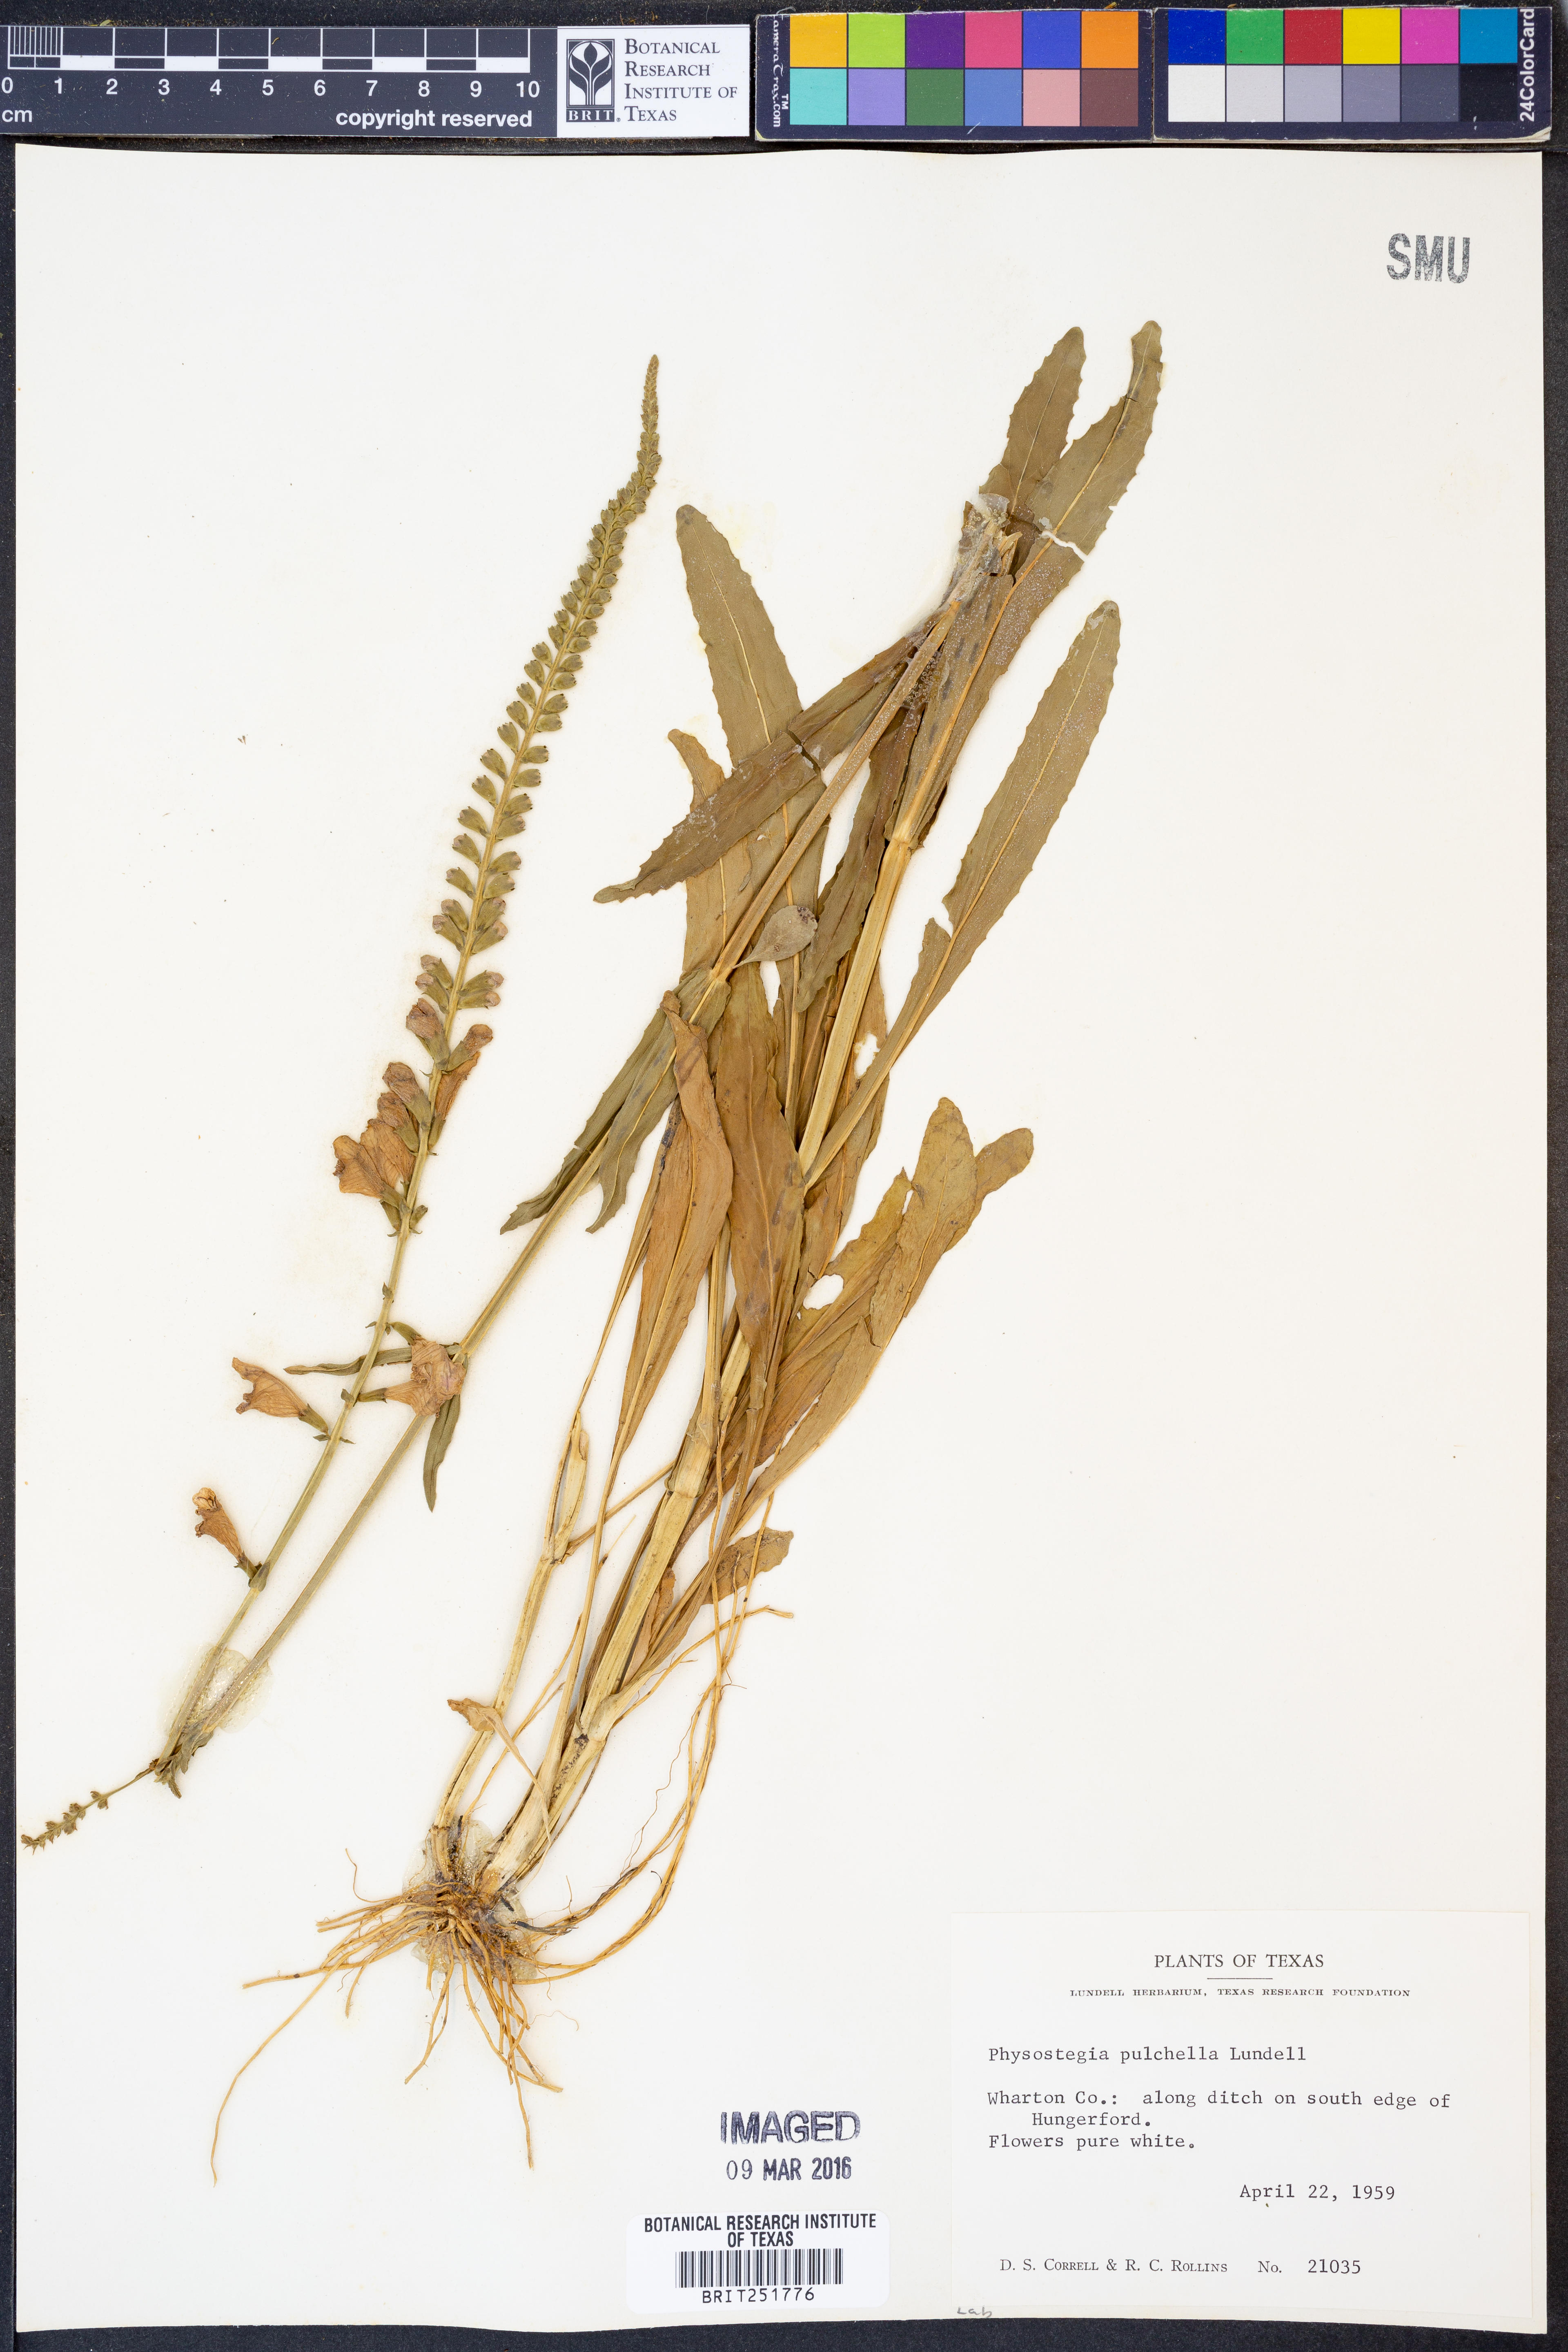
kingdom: Plantae
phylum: Tracheophyta
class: Magnoliopsida
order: Lamiales
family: Lamiaceae
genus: Physostegia
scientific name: Physostegia pulchella
